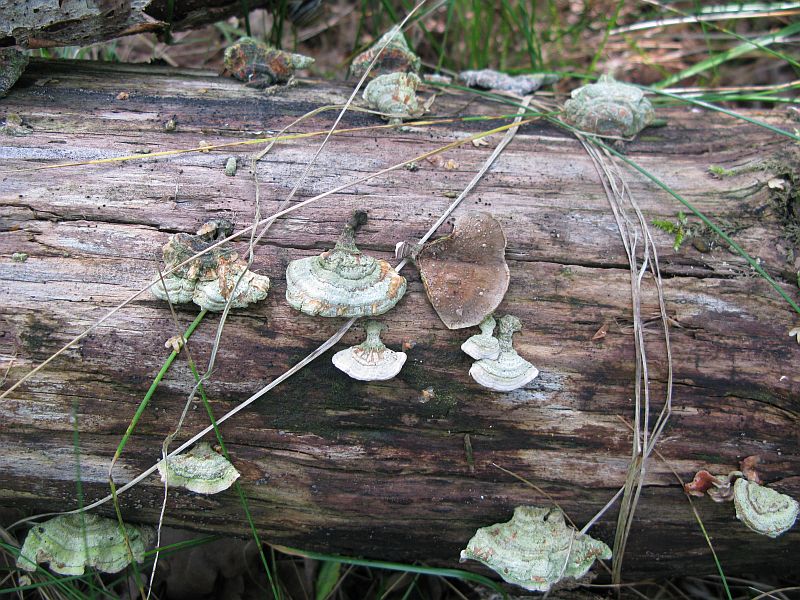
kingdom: Fungi
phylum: Basidiomycota
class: Agaricomycetes
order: Russulales
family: Stereaceae
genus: Stereum
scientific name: Stereum subtomentosum
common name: smuk lædersvamp
